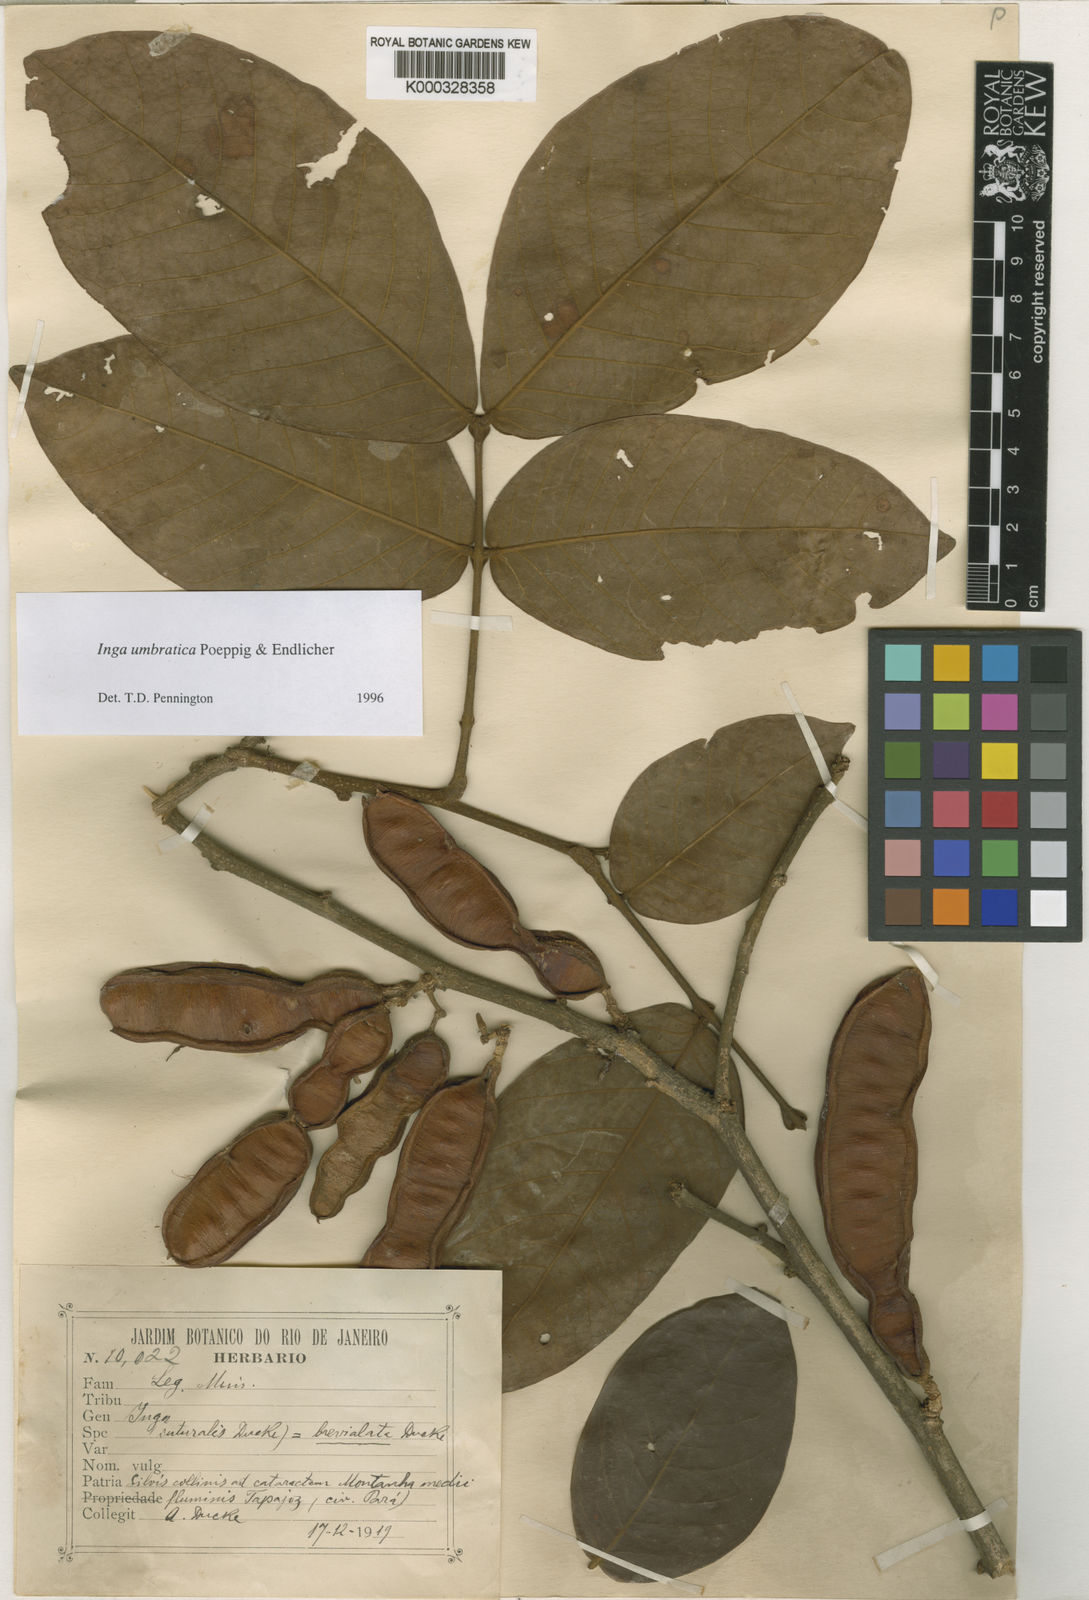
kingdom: Plantae
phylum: Tracheophyta
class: Magnoliopsida
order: Fabales
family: Fabaceae
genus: Inga
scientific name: Inga umbratica
